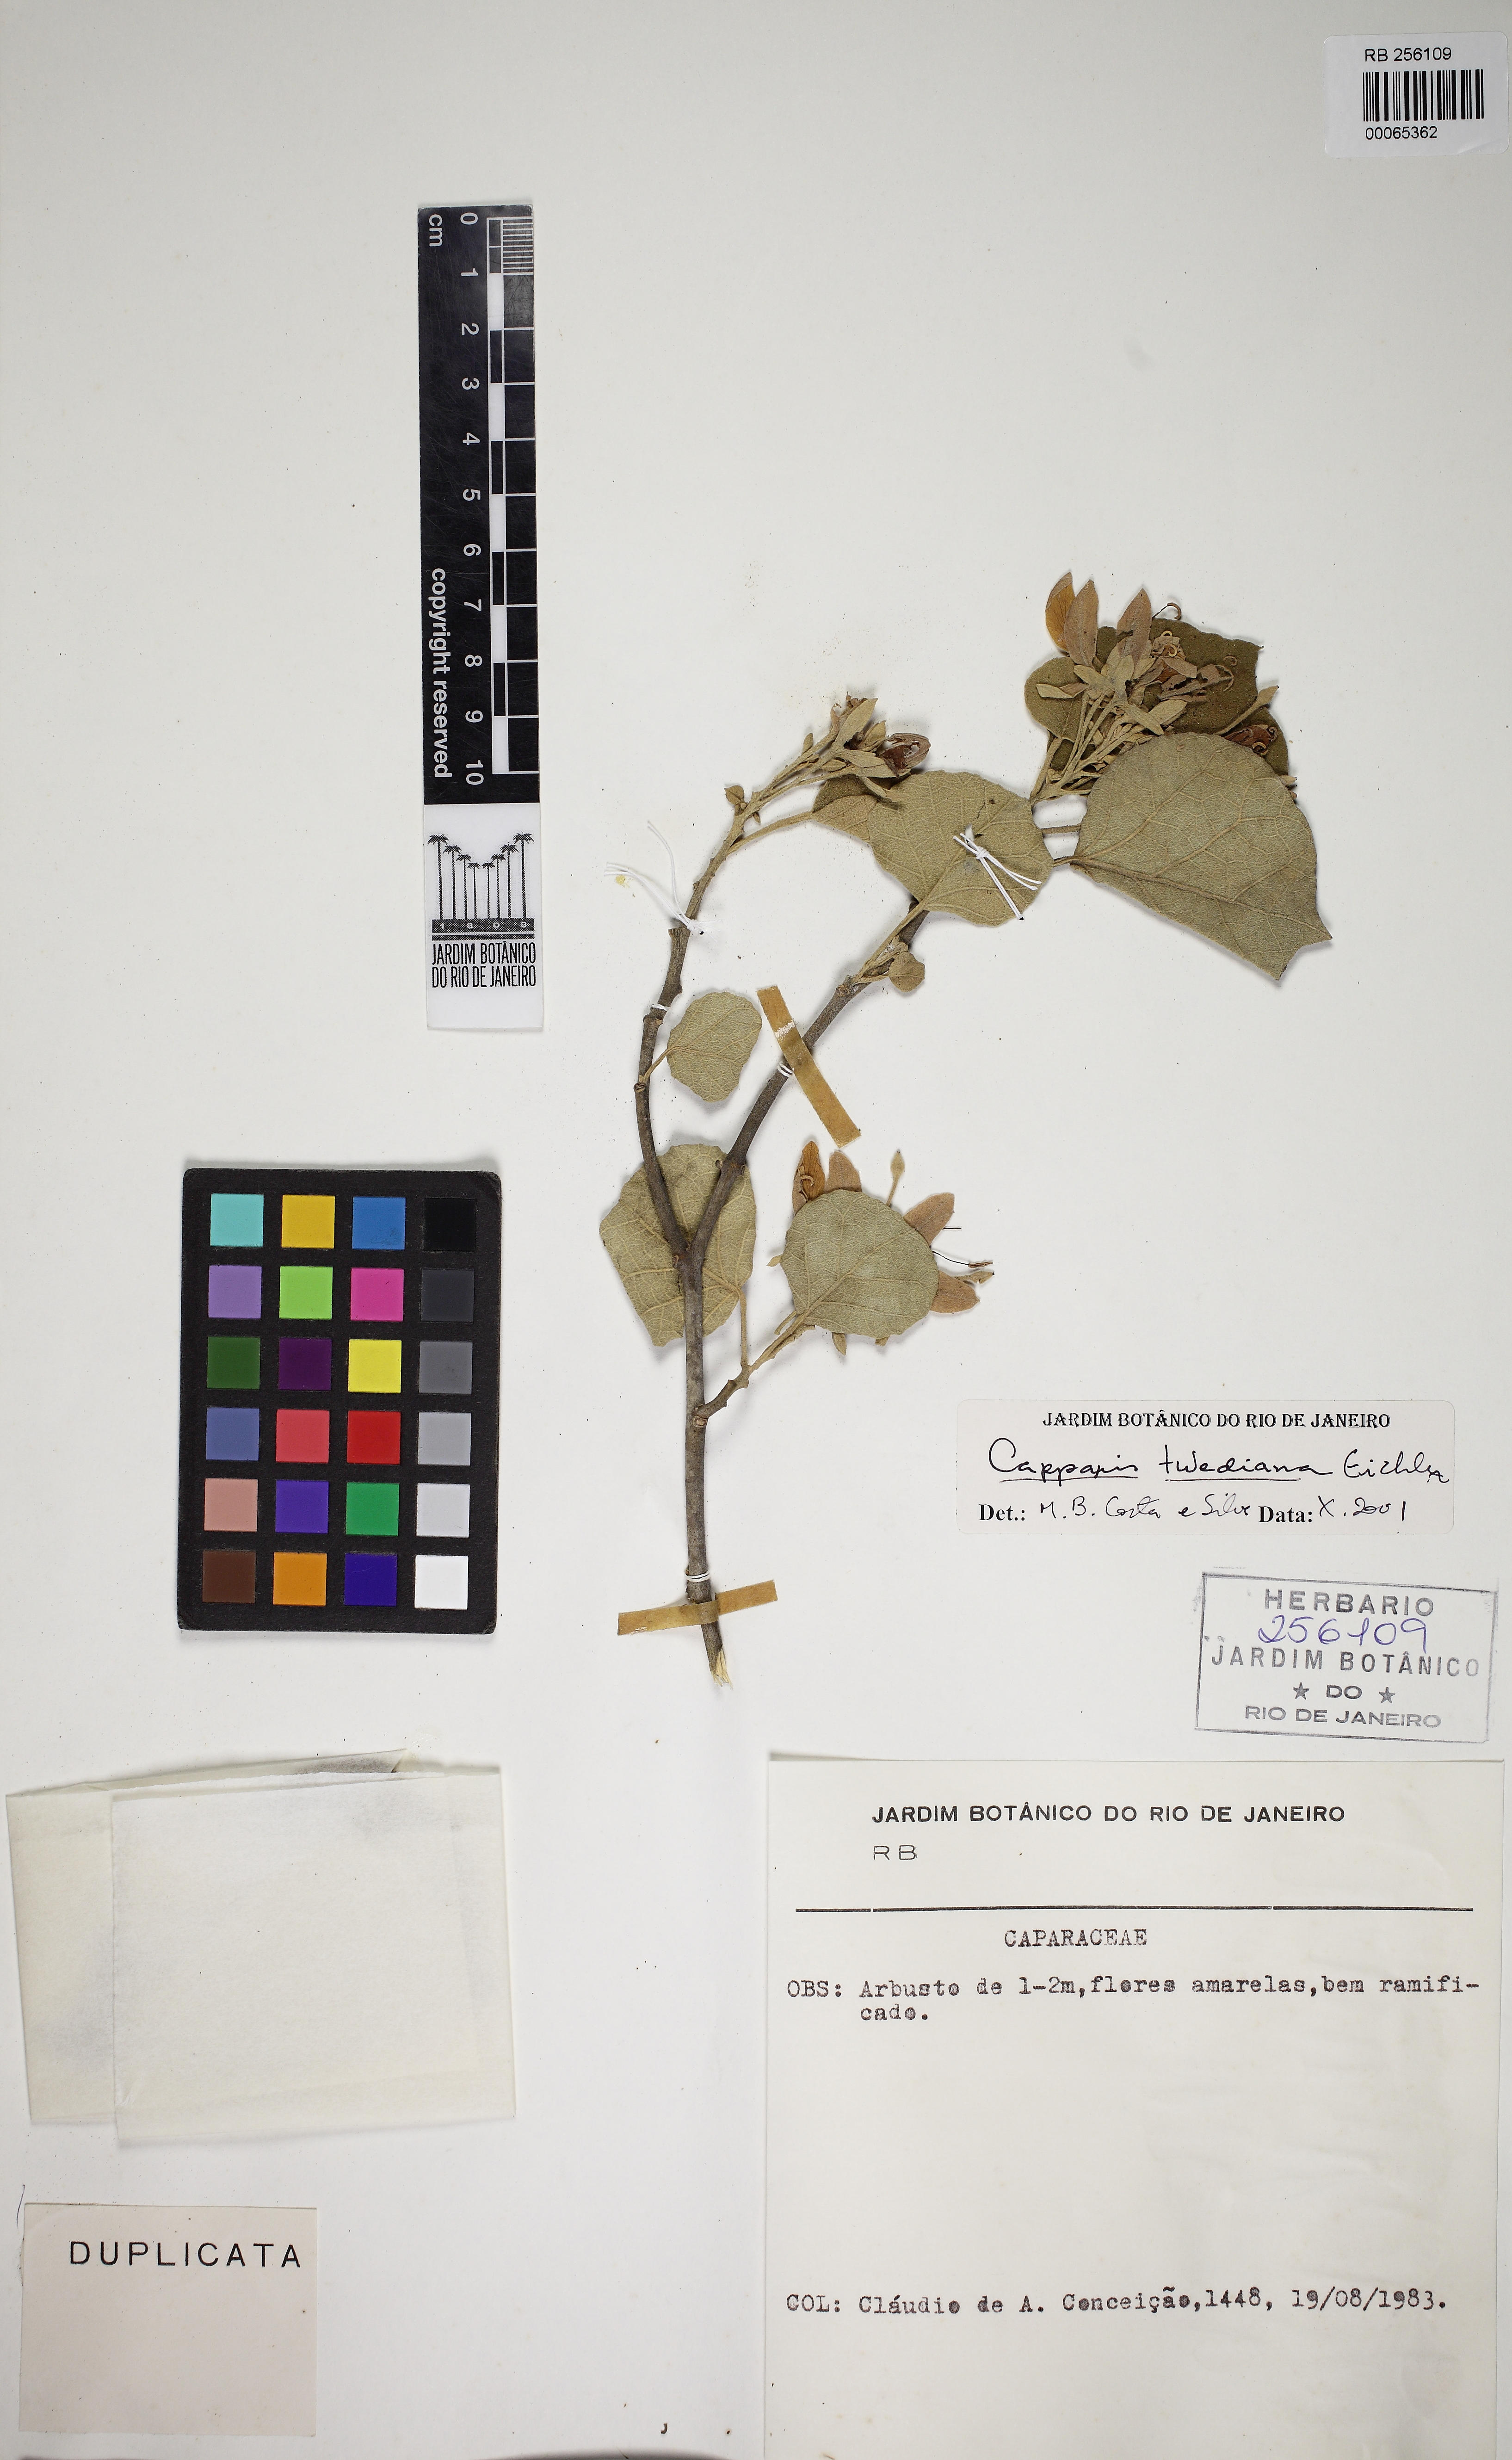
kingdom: Plantae
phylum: Tracheophyta
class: Magnoliopsida
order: Brassicales
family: Capparaceae
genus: Capparicordis
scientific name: Capparicordis tweediana
